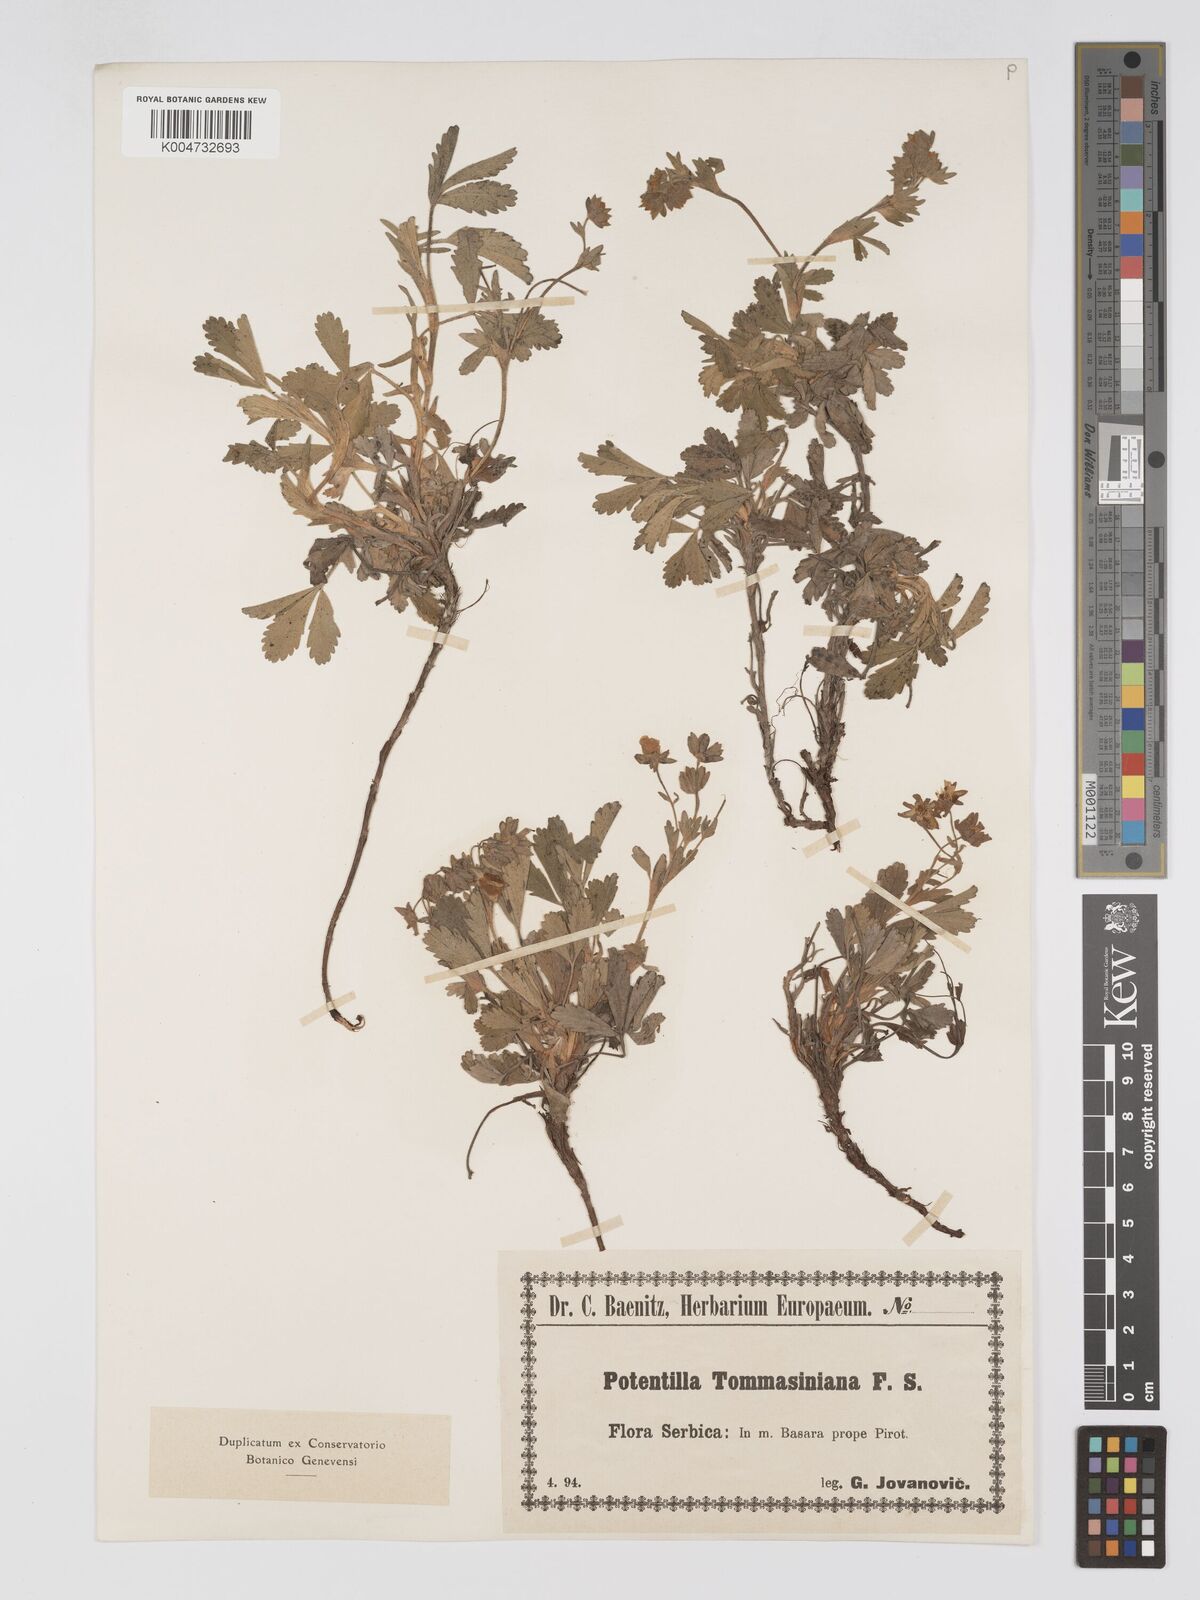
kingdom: Plantae
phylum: Tracheophyta
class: Magnoliopsida
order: Rosales
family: Rosaceae
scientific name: Rosaceae
